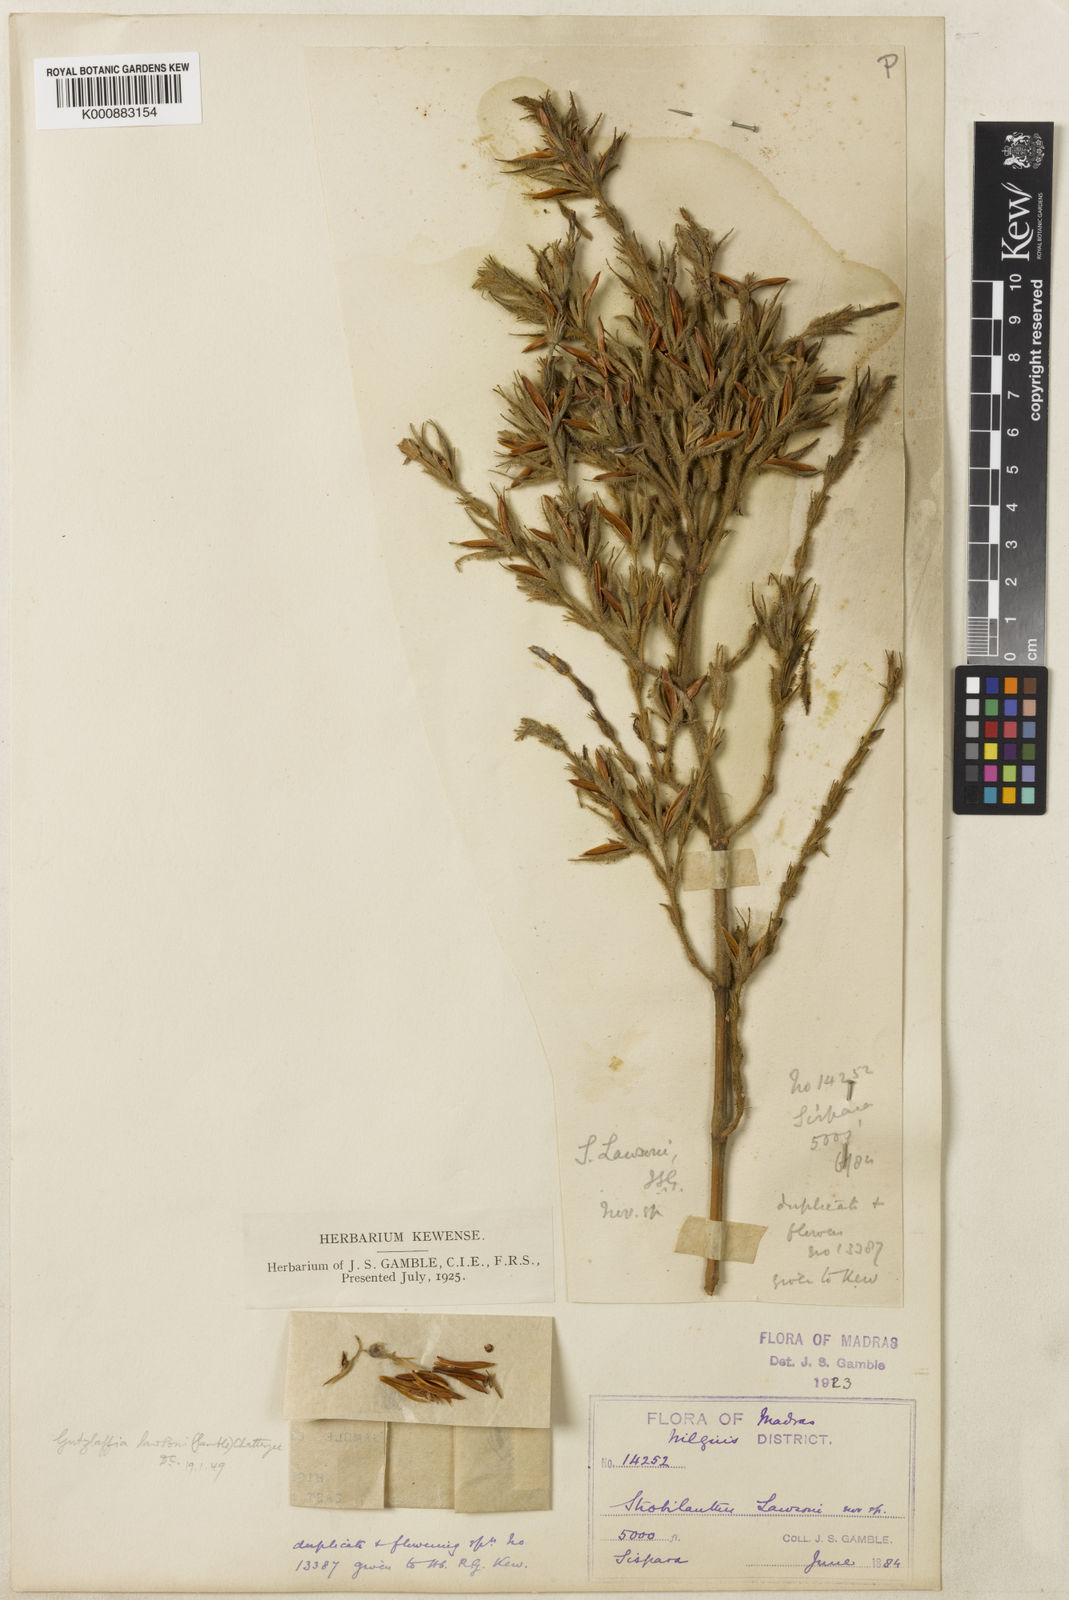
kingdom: Plantae
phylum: Tracheophyta
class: Magnoliopsida
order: Lamiales
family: Acanthaceae
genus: Strobilanthes
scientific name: Strobilanthes lawsonii
